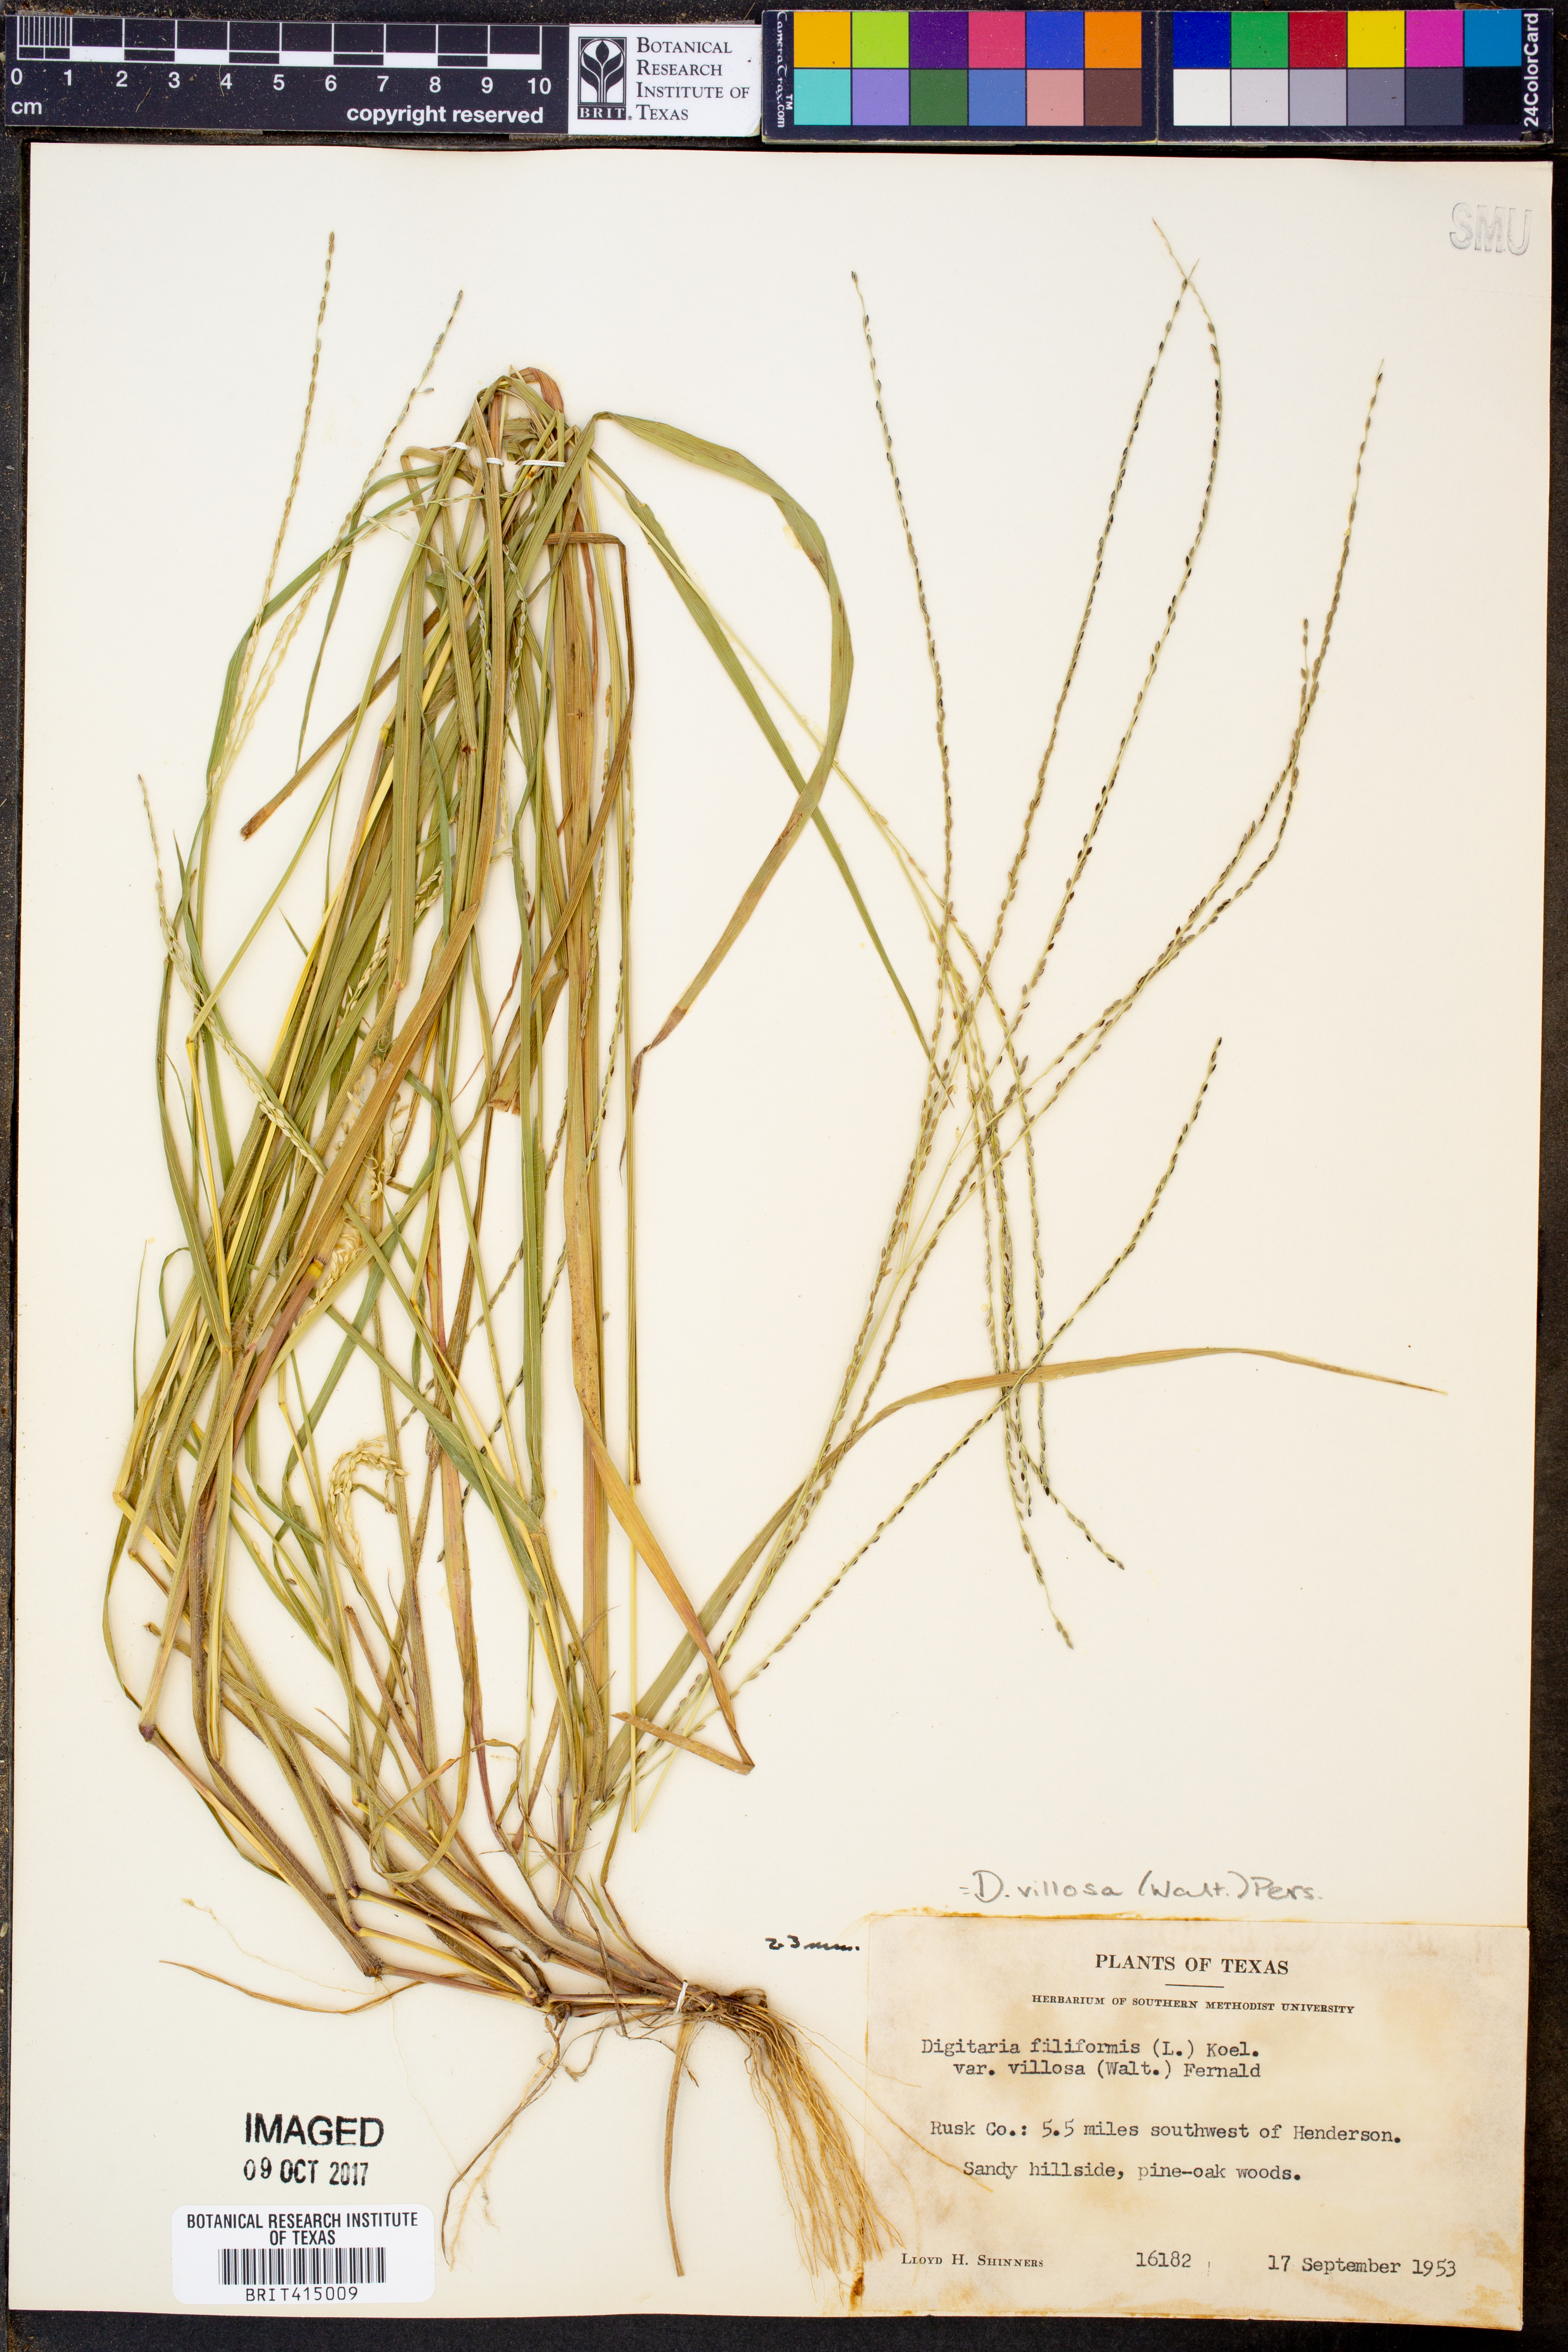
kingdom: Plantae
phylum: Tracheophyta
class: Liliopsida
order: Poales
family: Poaceae
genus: Digitaria
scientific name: Digitaria villosa
